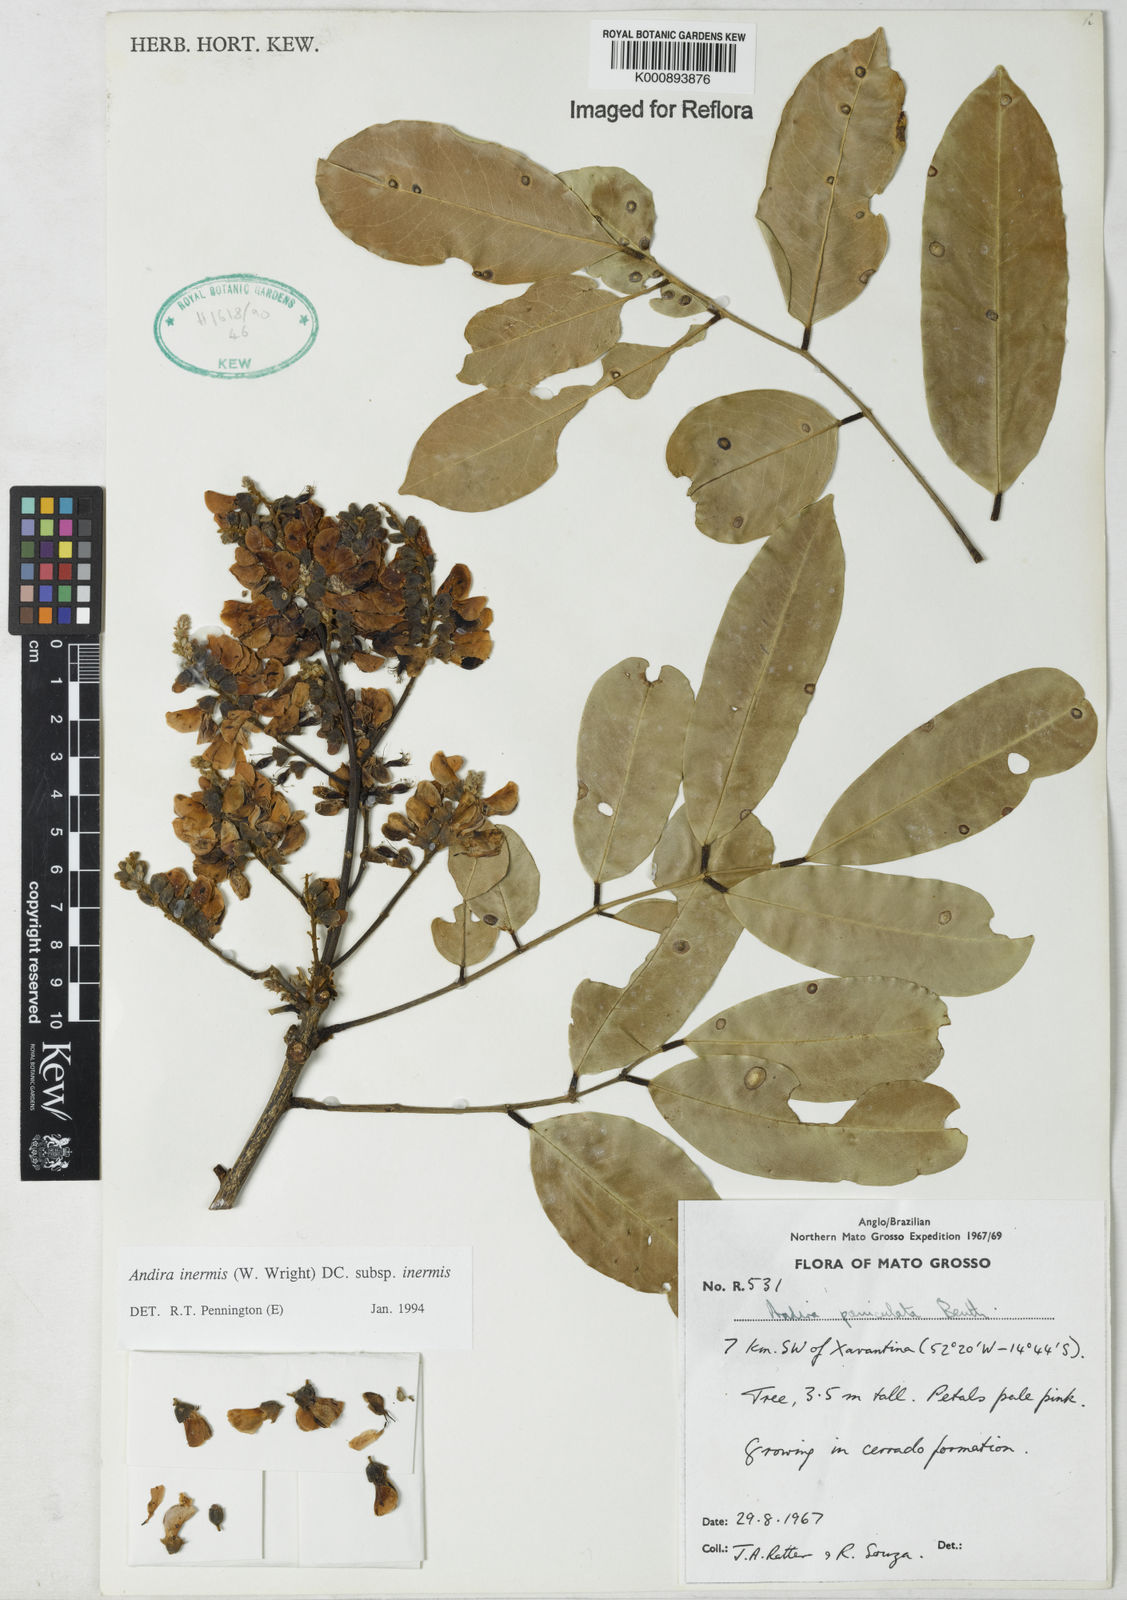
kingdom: Plantae
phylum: Tracheophyta
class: Magnoliopsida
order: Fabales
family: Fabaceae
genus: Andira
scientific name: Andira inermis
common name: Angelin
